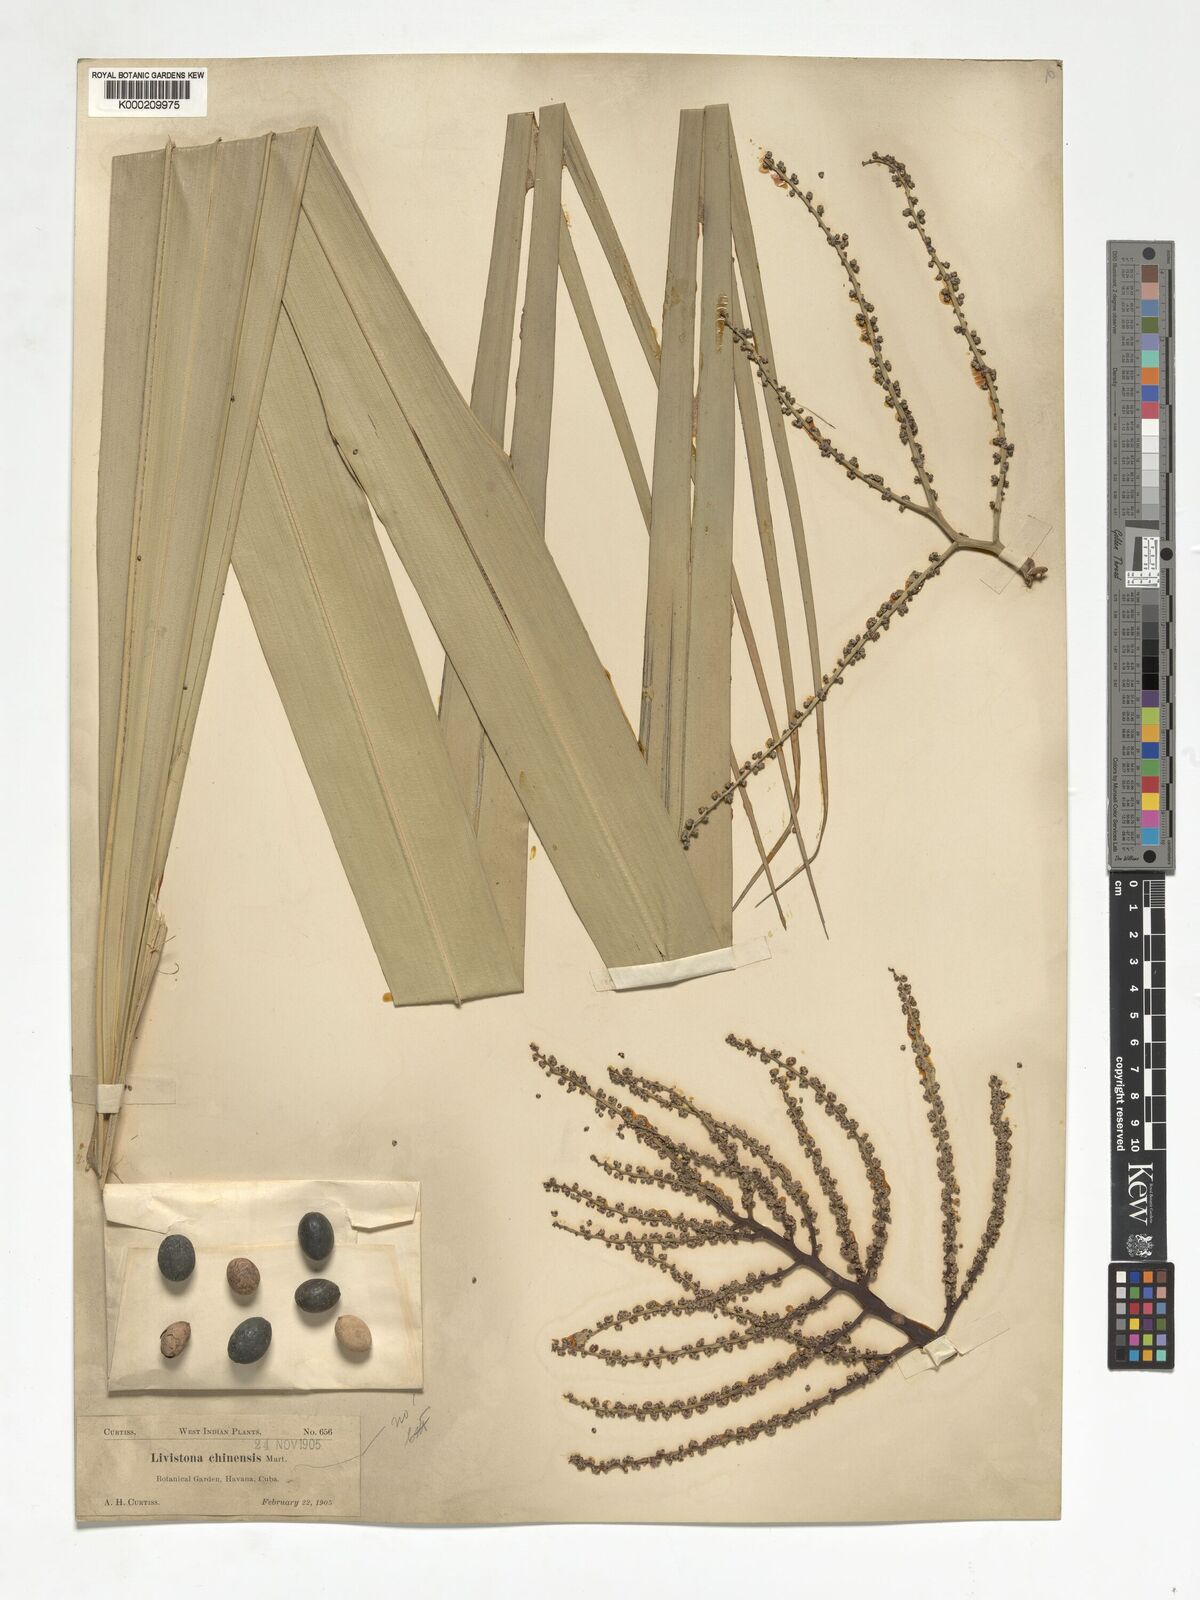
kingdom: Plantae
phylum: Tracheophyta
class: Liliopsida
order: Arecales
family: Arecaceae
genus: Livistona
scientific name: Livistona chinensis
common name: Fountain palm
